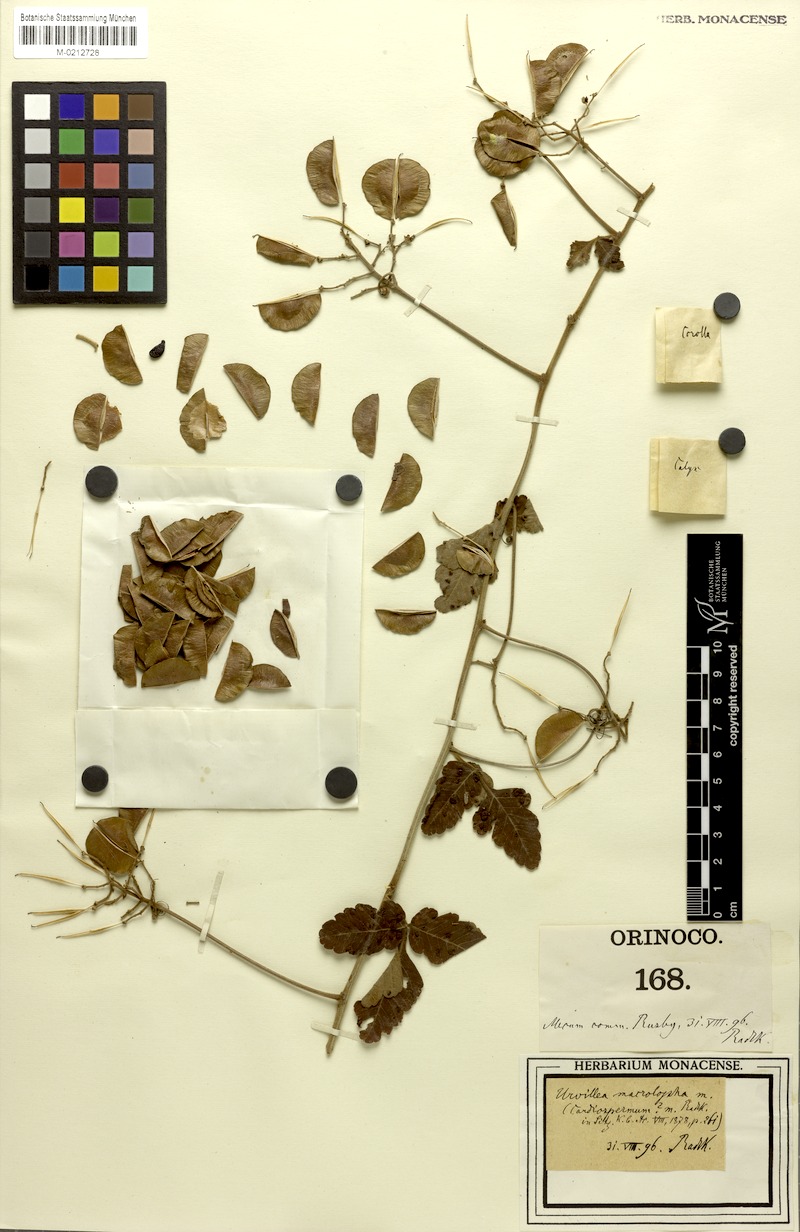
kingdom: Plantae
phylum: Tracheophyta
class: Magnoliopsida
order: Sapindales
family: Sapindaceae
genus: Serjania
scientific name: Serjania macrolopha
